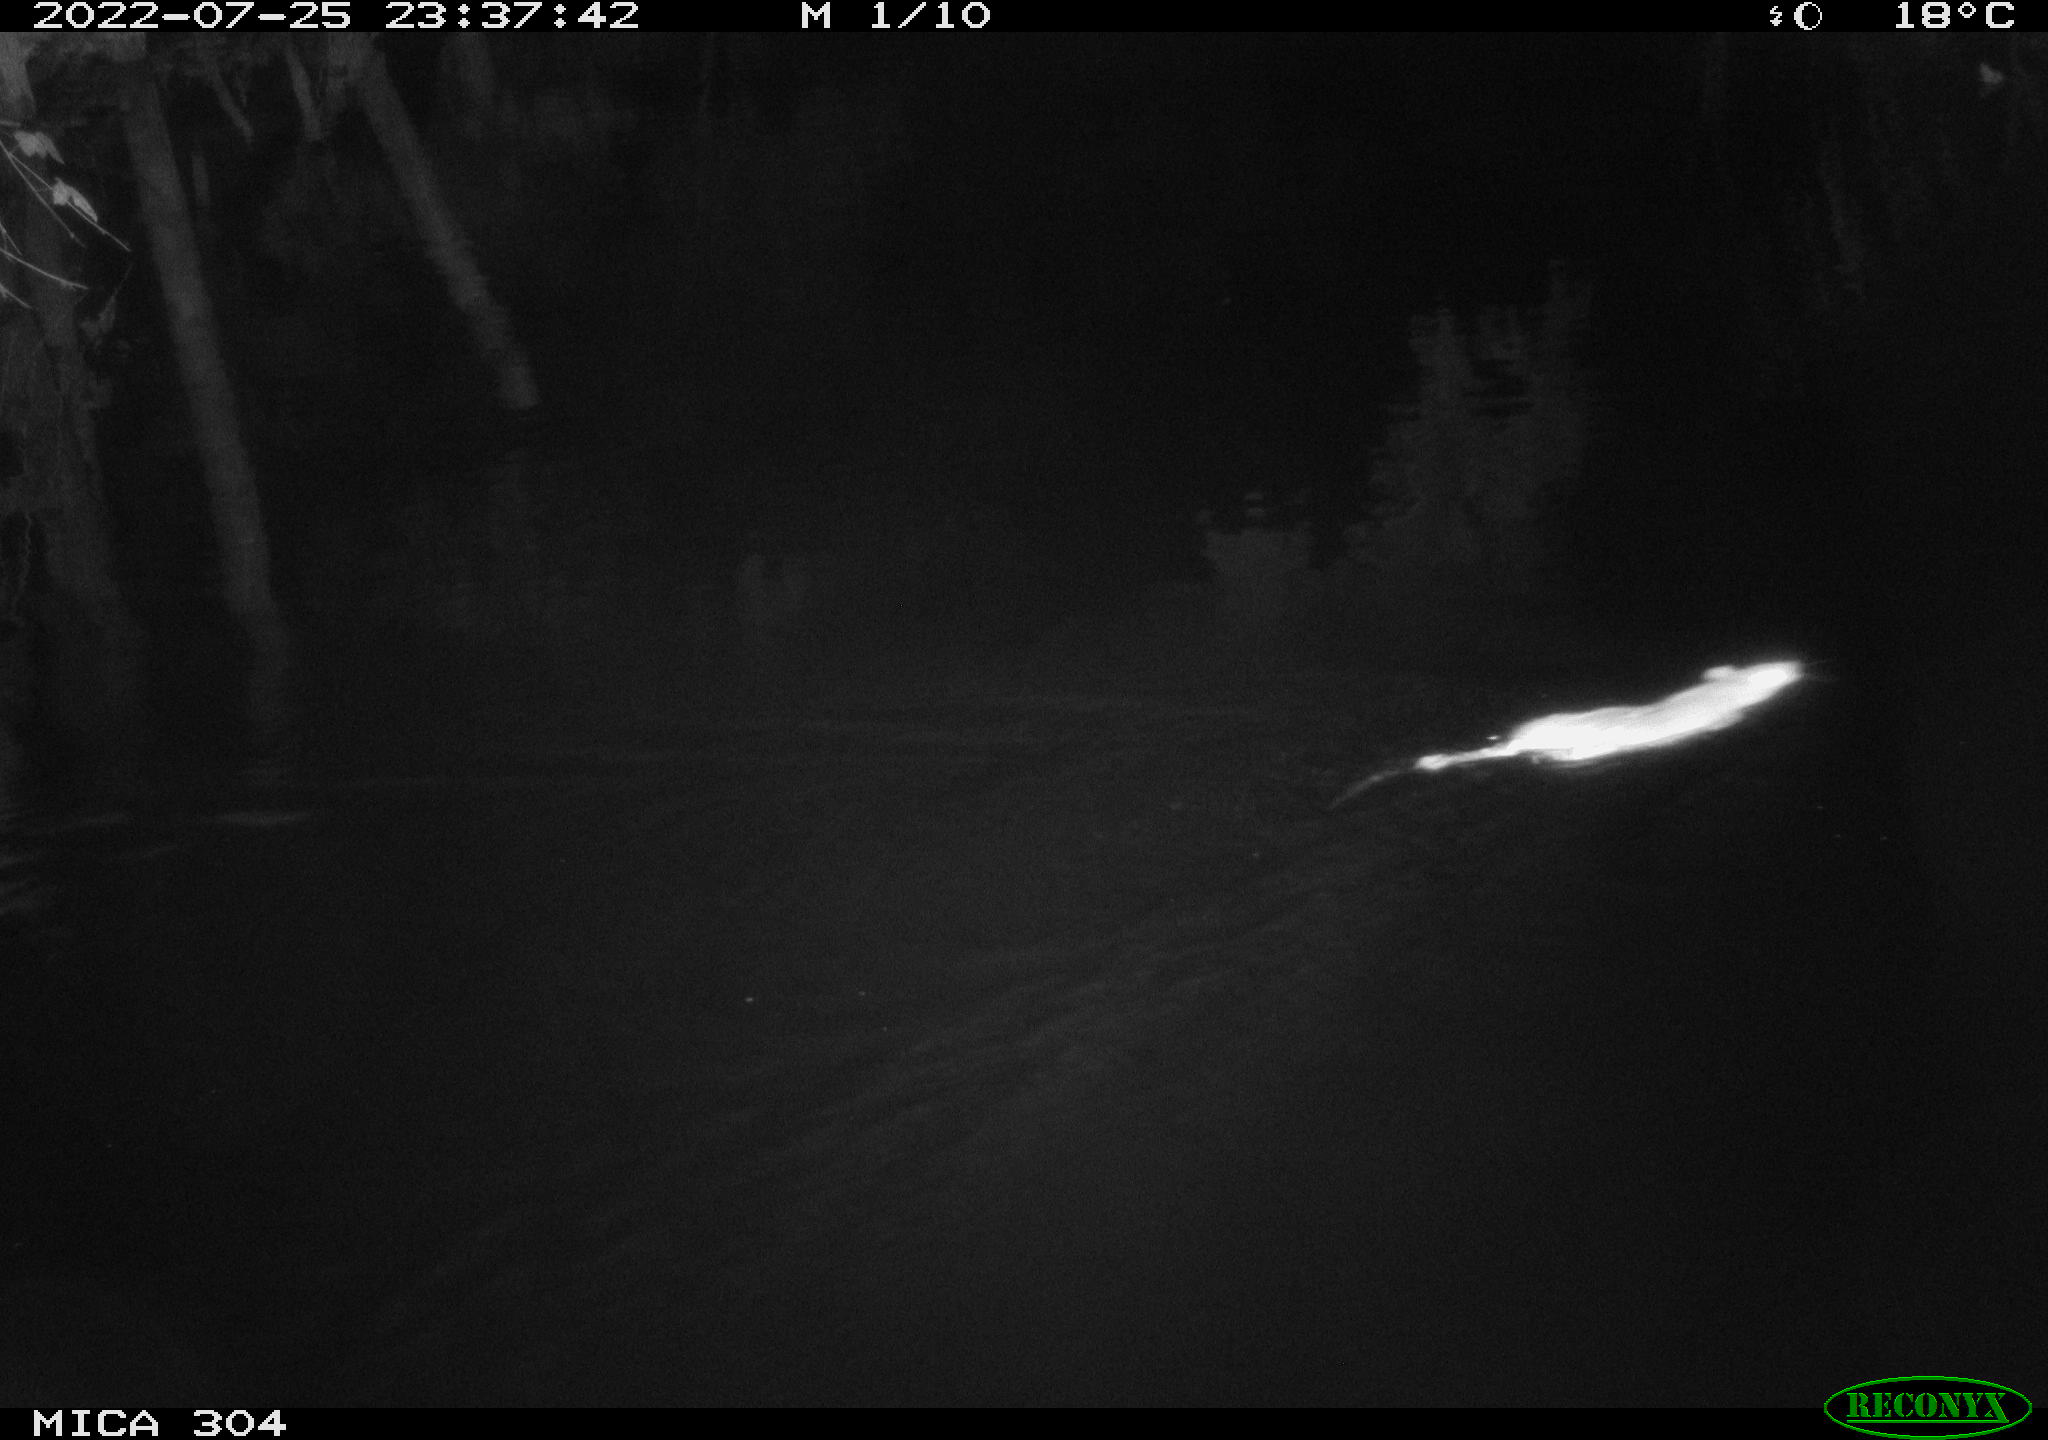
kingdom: Animalia
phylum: Chordata
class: Mammalia
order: Rodentia
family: Muridae
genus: Rattus
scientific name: Rattus norvegicus
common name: Brown rat
